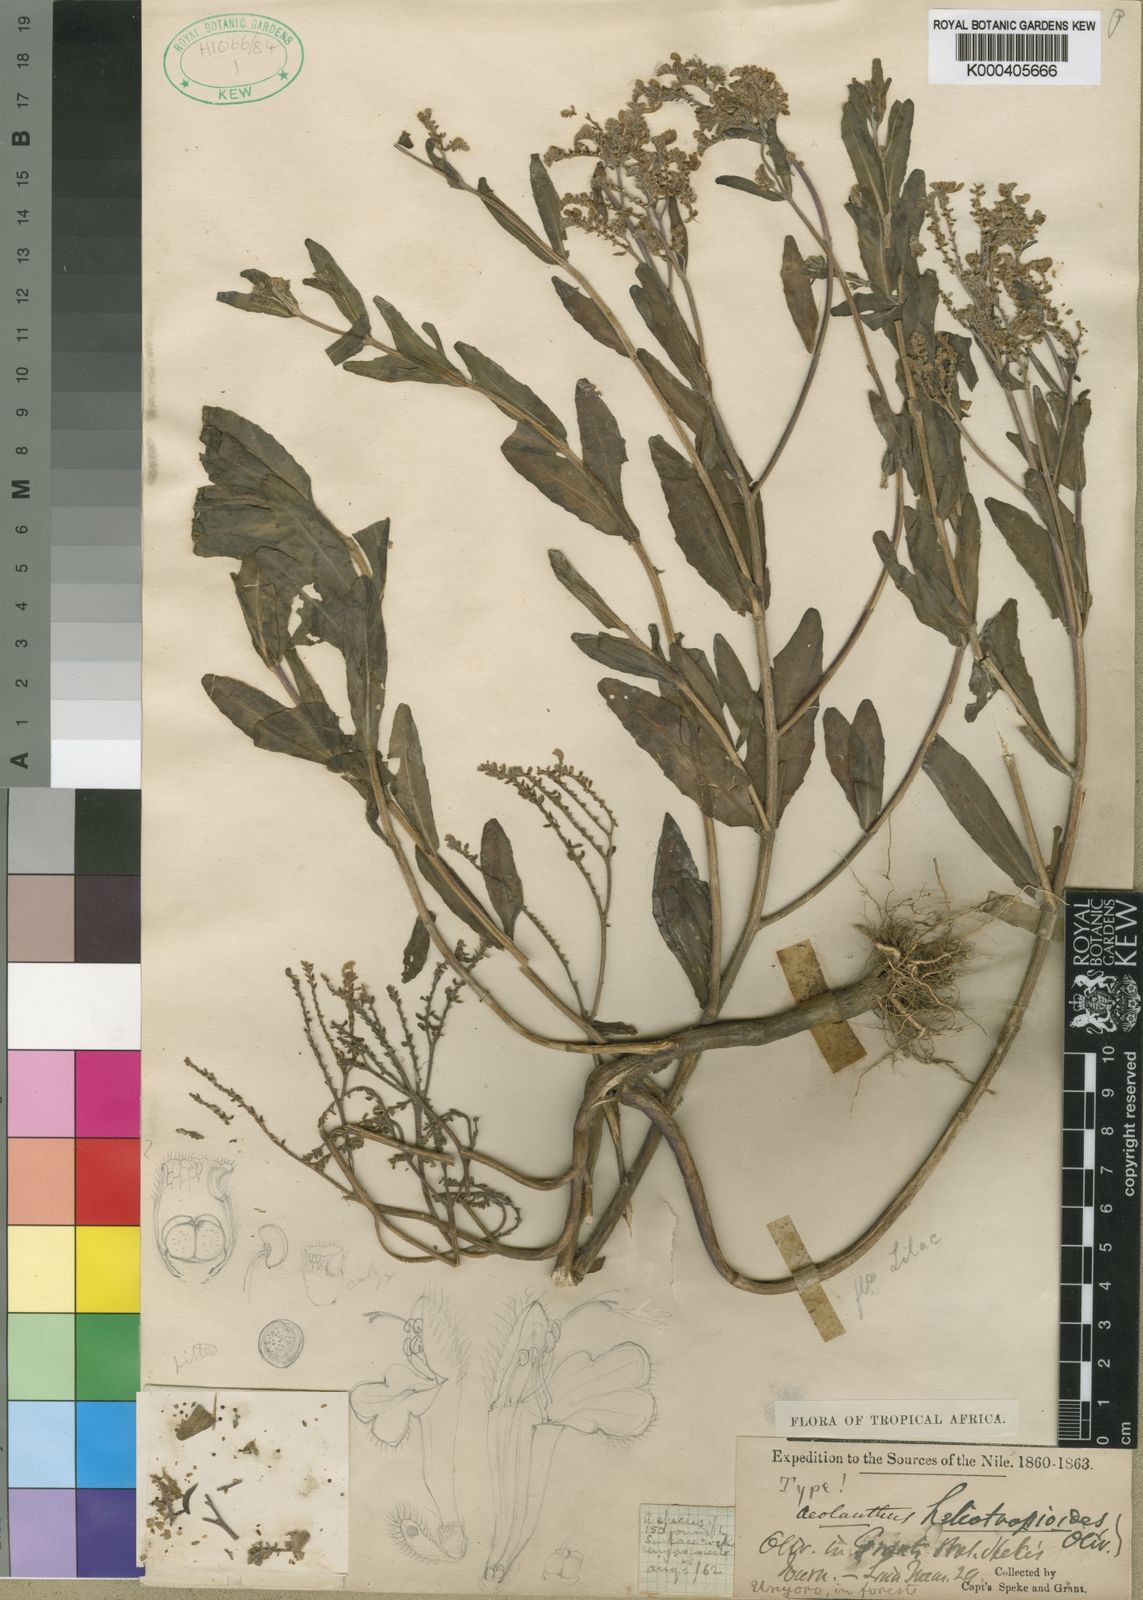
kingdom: Plantae
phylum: Tracheophyta
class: Magnoliopsida
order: Lamiales
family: Lamiaceae
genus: Aeollanthus
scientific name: Aeollanthus suaveolens
